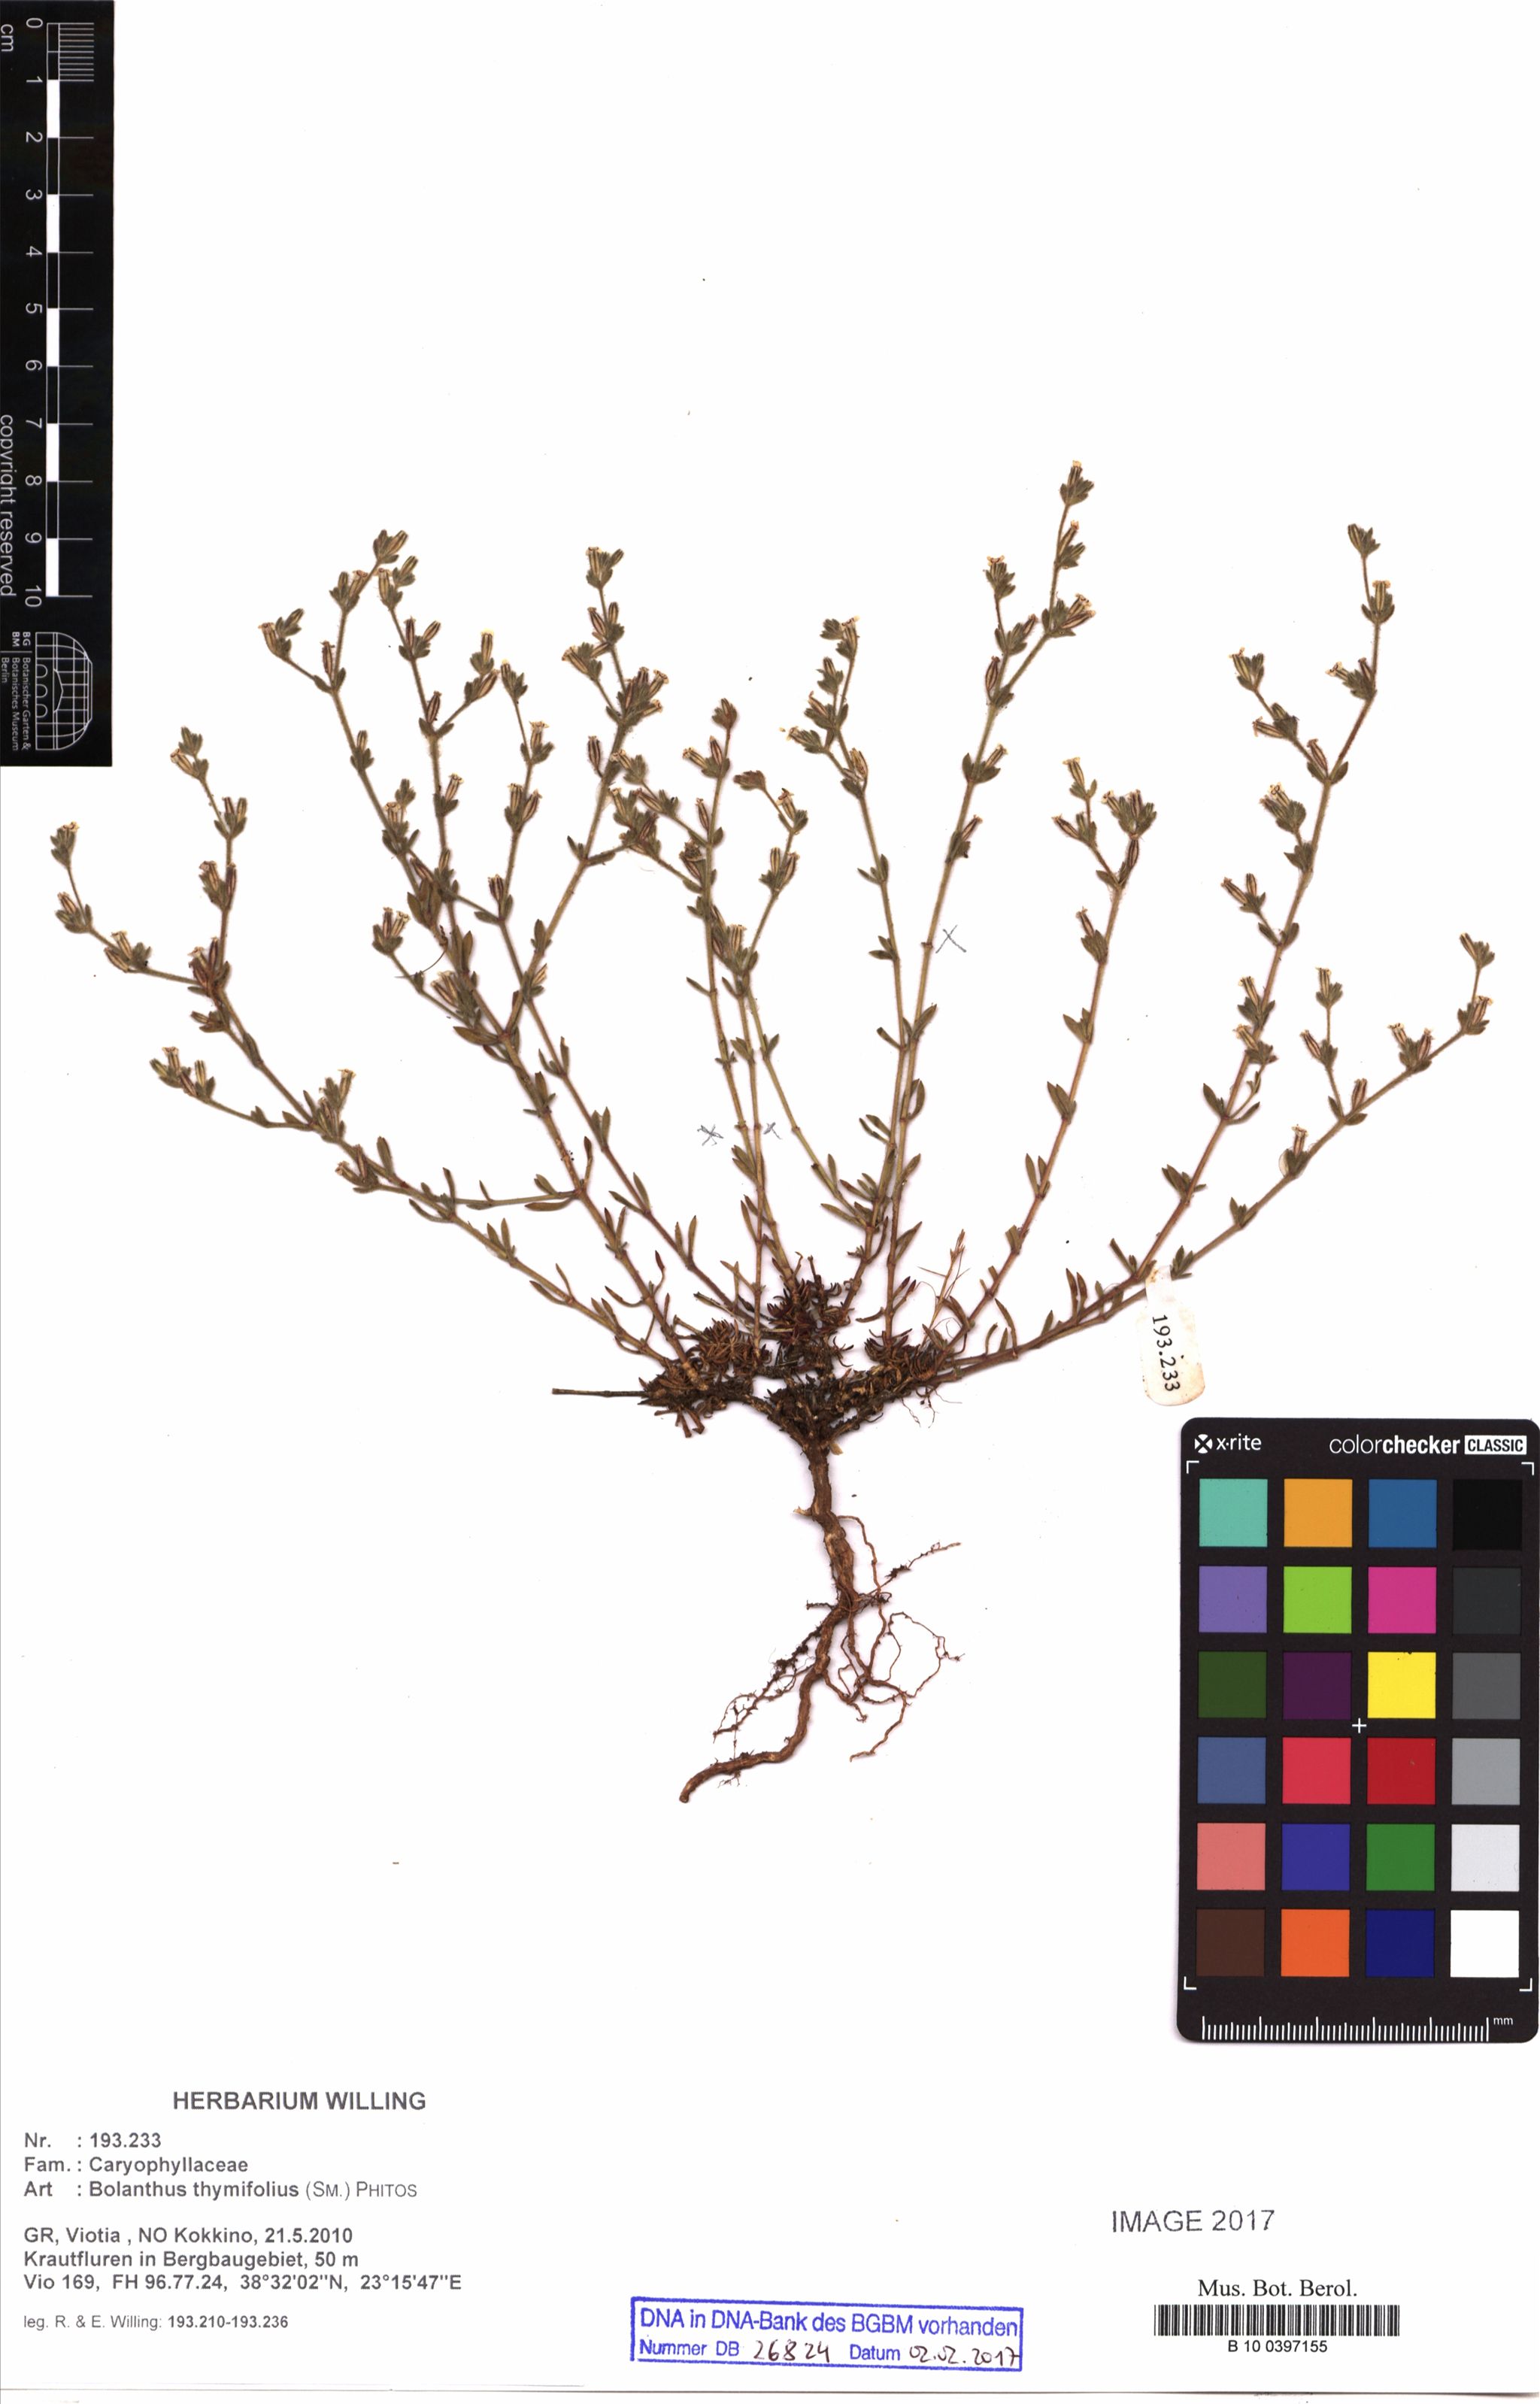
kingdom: Plantae
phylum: Tracheophyta
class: Magnoliopsida
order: Caryophyllales
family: Caryophyllaceae
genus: Graecobolanthus
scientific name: Graecobolanthus thymifolius
